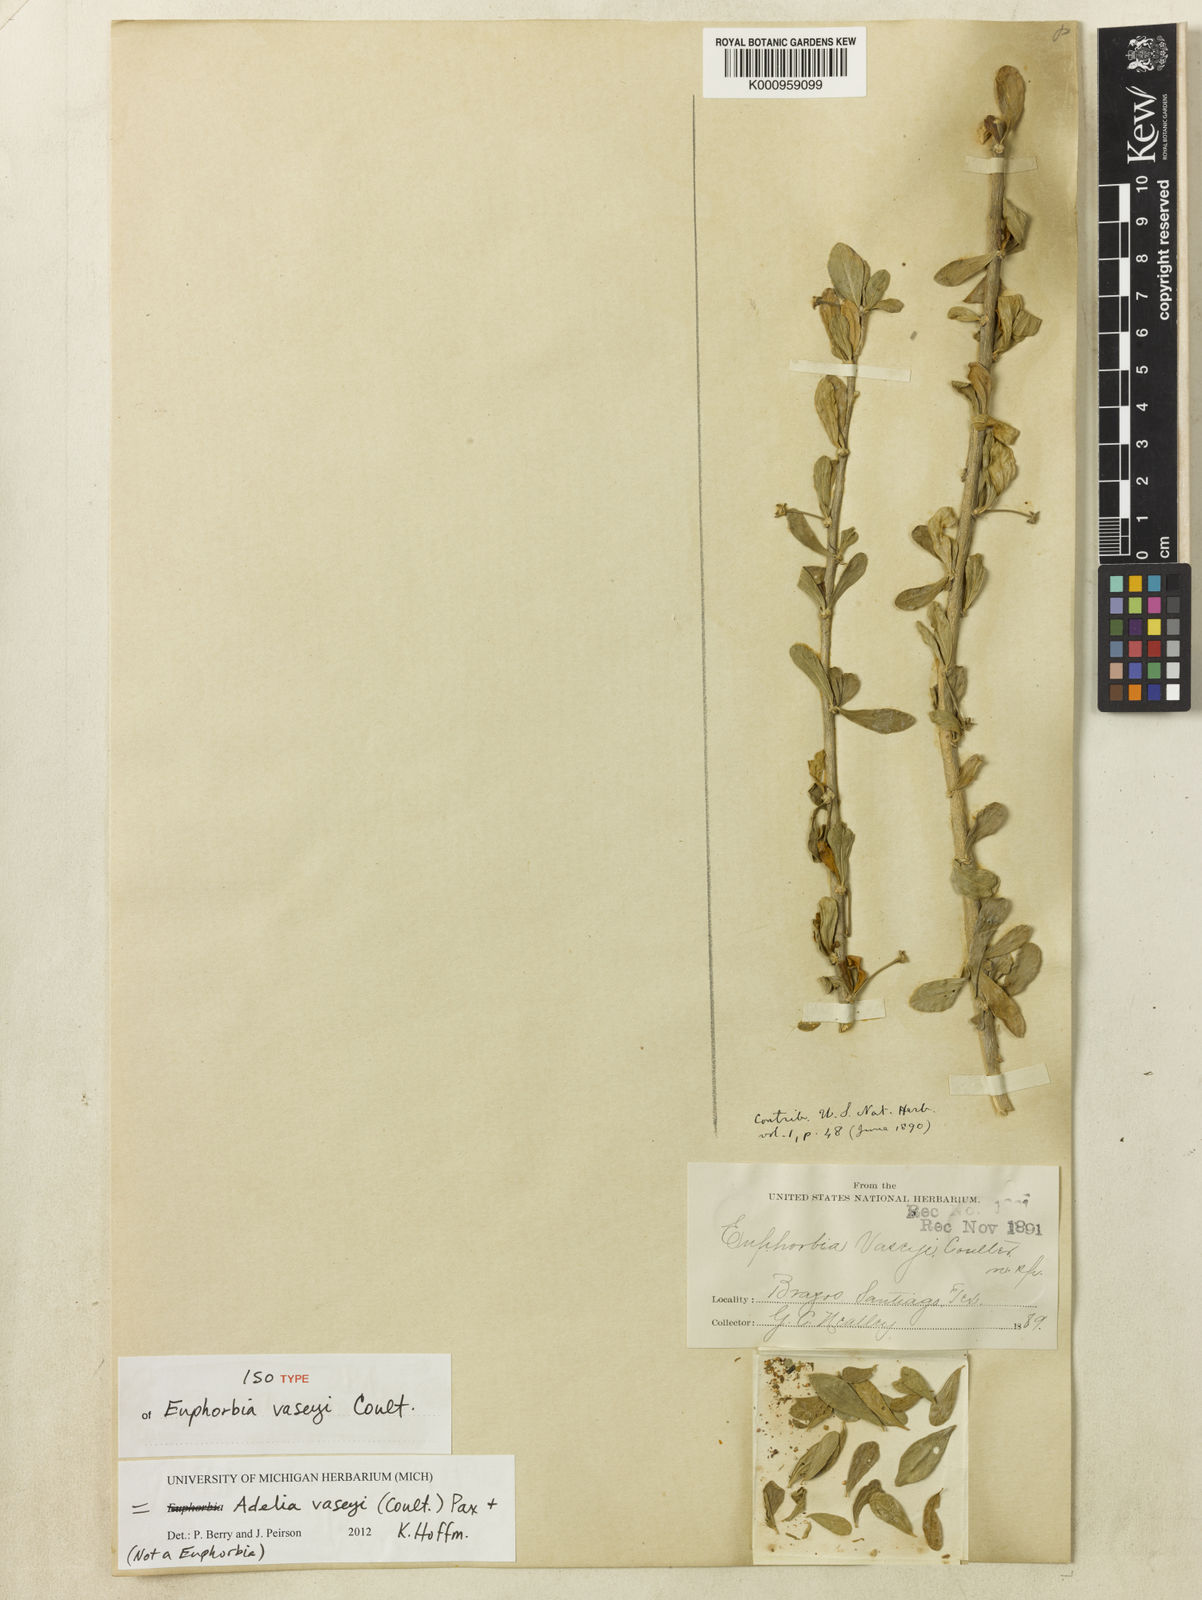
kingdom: Plantae
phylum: Tracheophyta
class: Magnoliopsida
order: Malpighiales
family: Euphorbiaceae
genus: Adelia
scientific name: Adelia vaseyi
